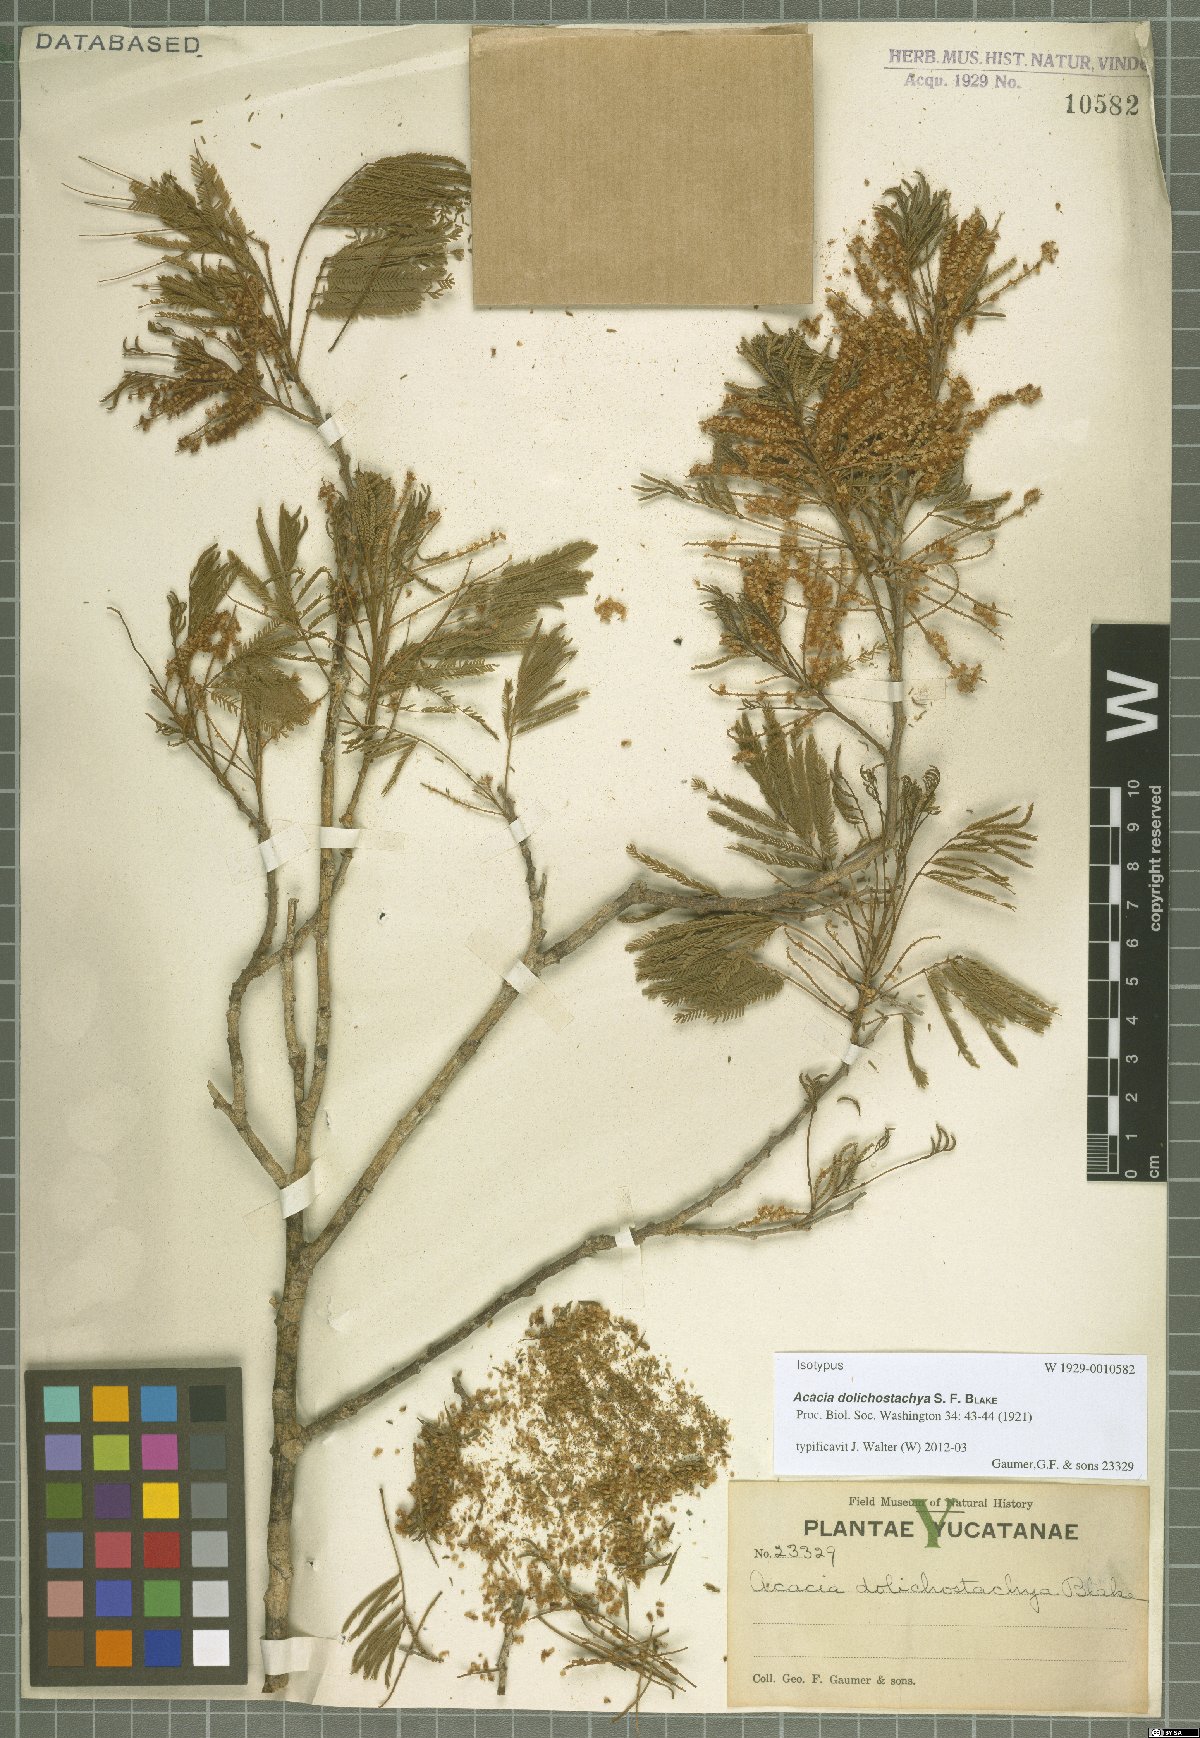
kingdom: Plantae
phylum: Tracheophyta
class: Magnoliopsida
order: Fabales
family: Fabaceae
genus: Mariosousa
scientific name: Mariosousa dolichostachya
